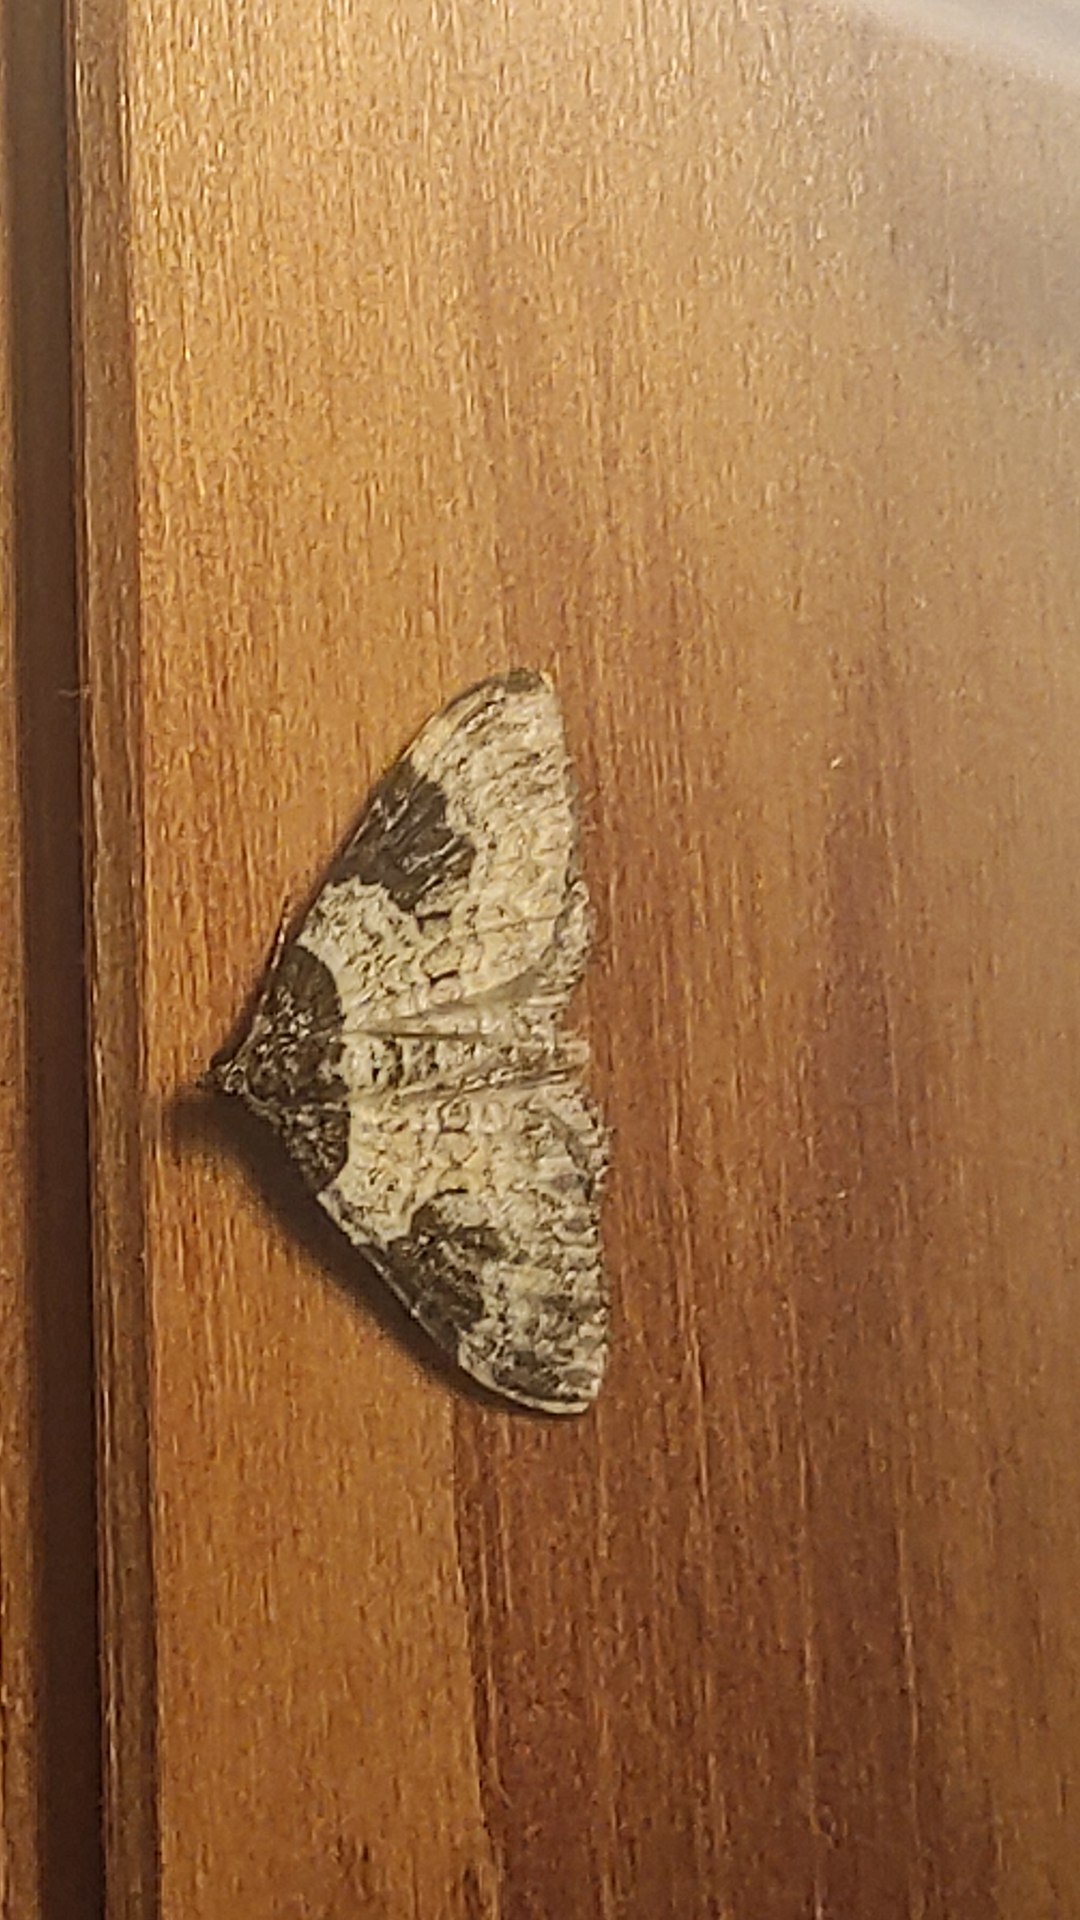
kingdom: Animalia
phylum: Arthropoda
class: Insecta
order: Lepidoptera
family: Geometridae
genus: Xanthorhoe
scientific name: Xanthorhoe fluctuata
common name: Sortbæltet bladmåler
